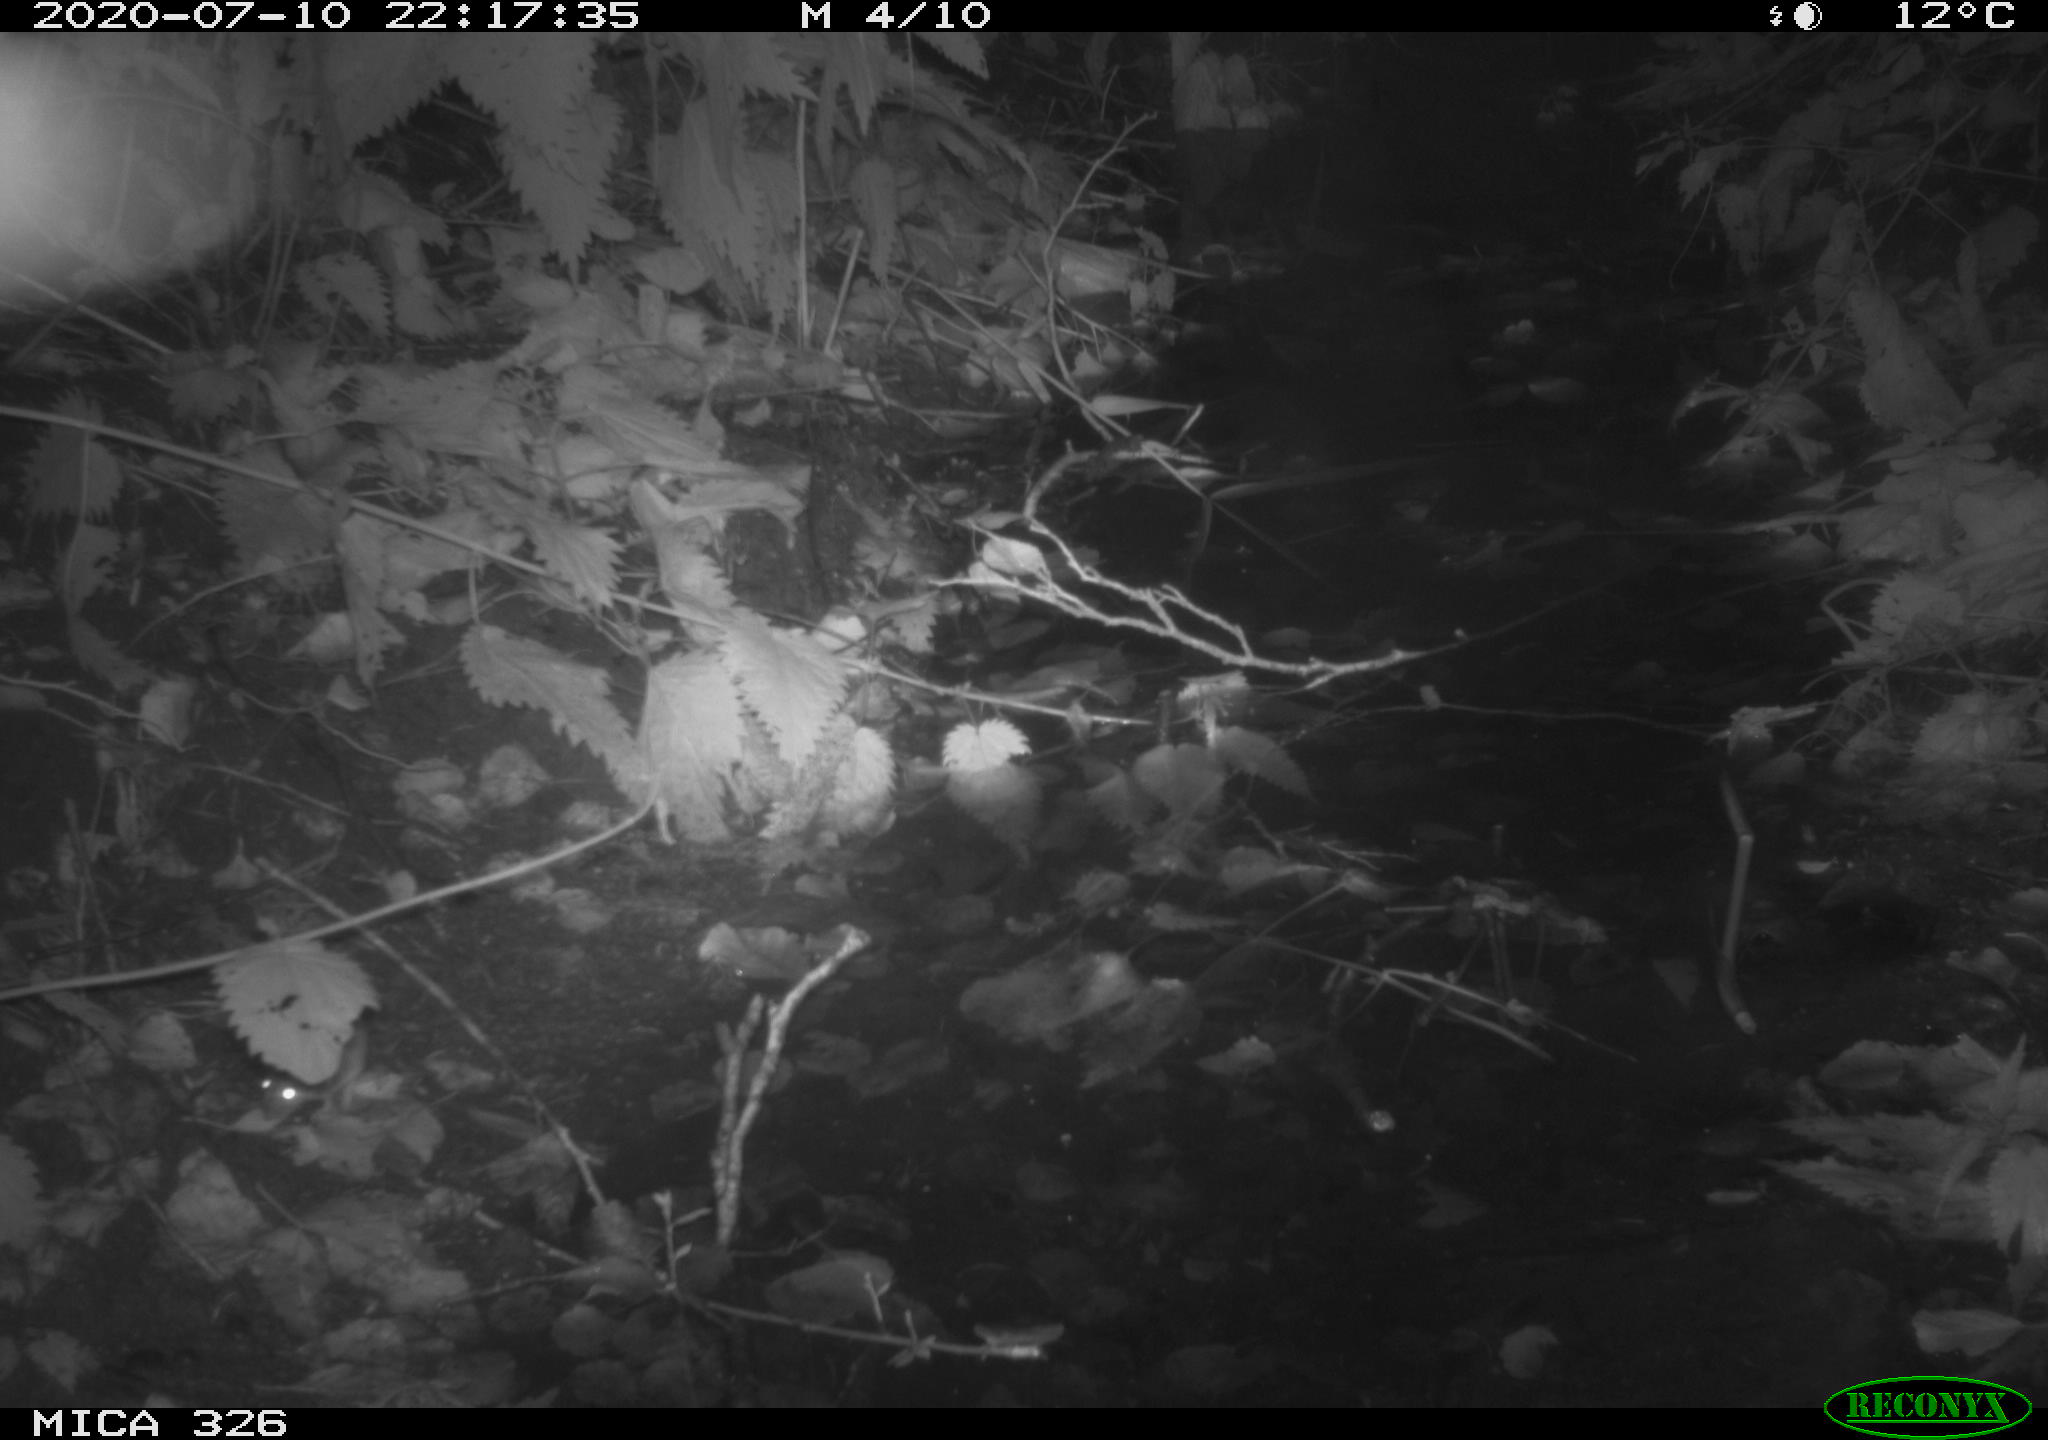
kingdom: Animalia
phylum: Chordata
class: Mammalia
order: Rodentia
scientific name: Rodentia
